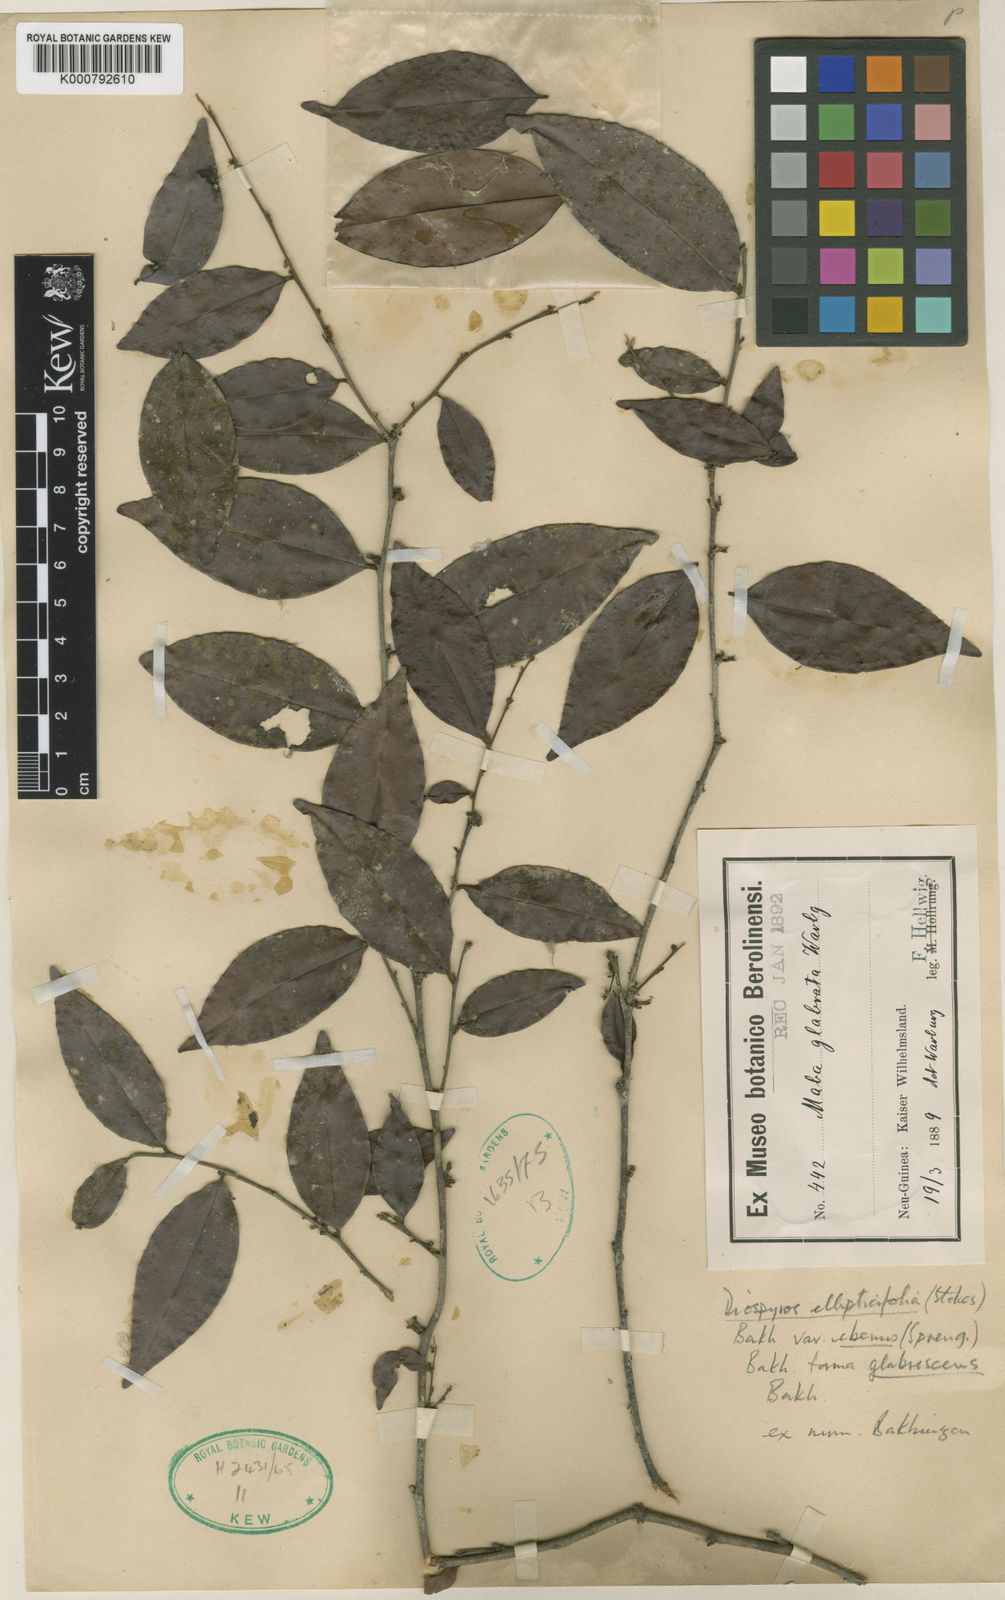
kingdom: Plantae
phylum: Tracheophyta
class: Magnoliopsida
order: Ericales
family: Ebenaceae
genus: Diospyros
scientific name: Diospyros ferrea
